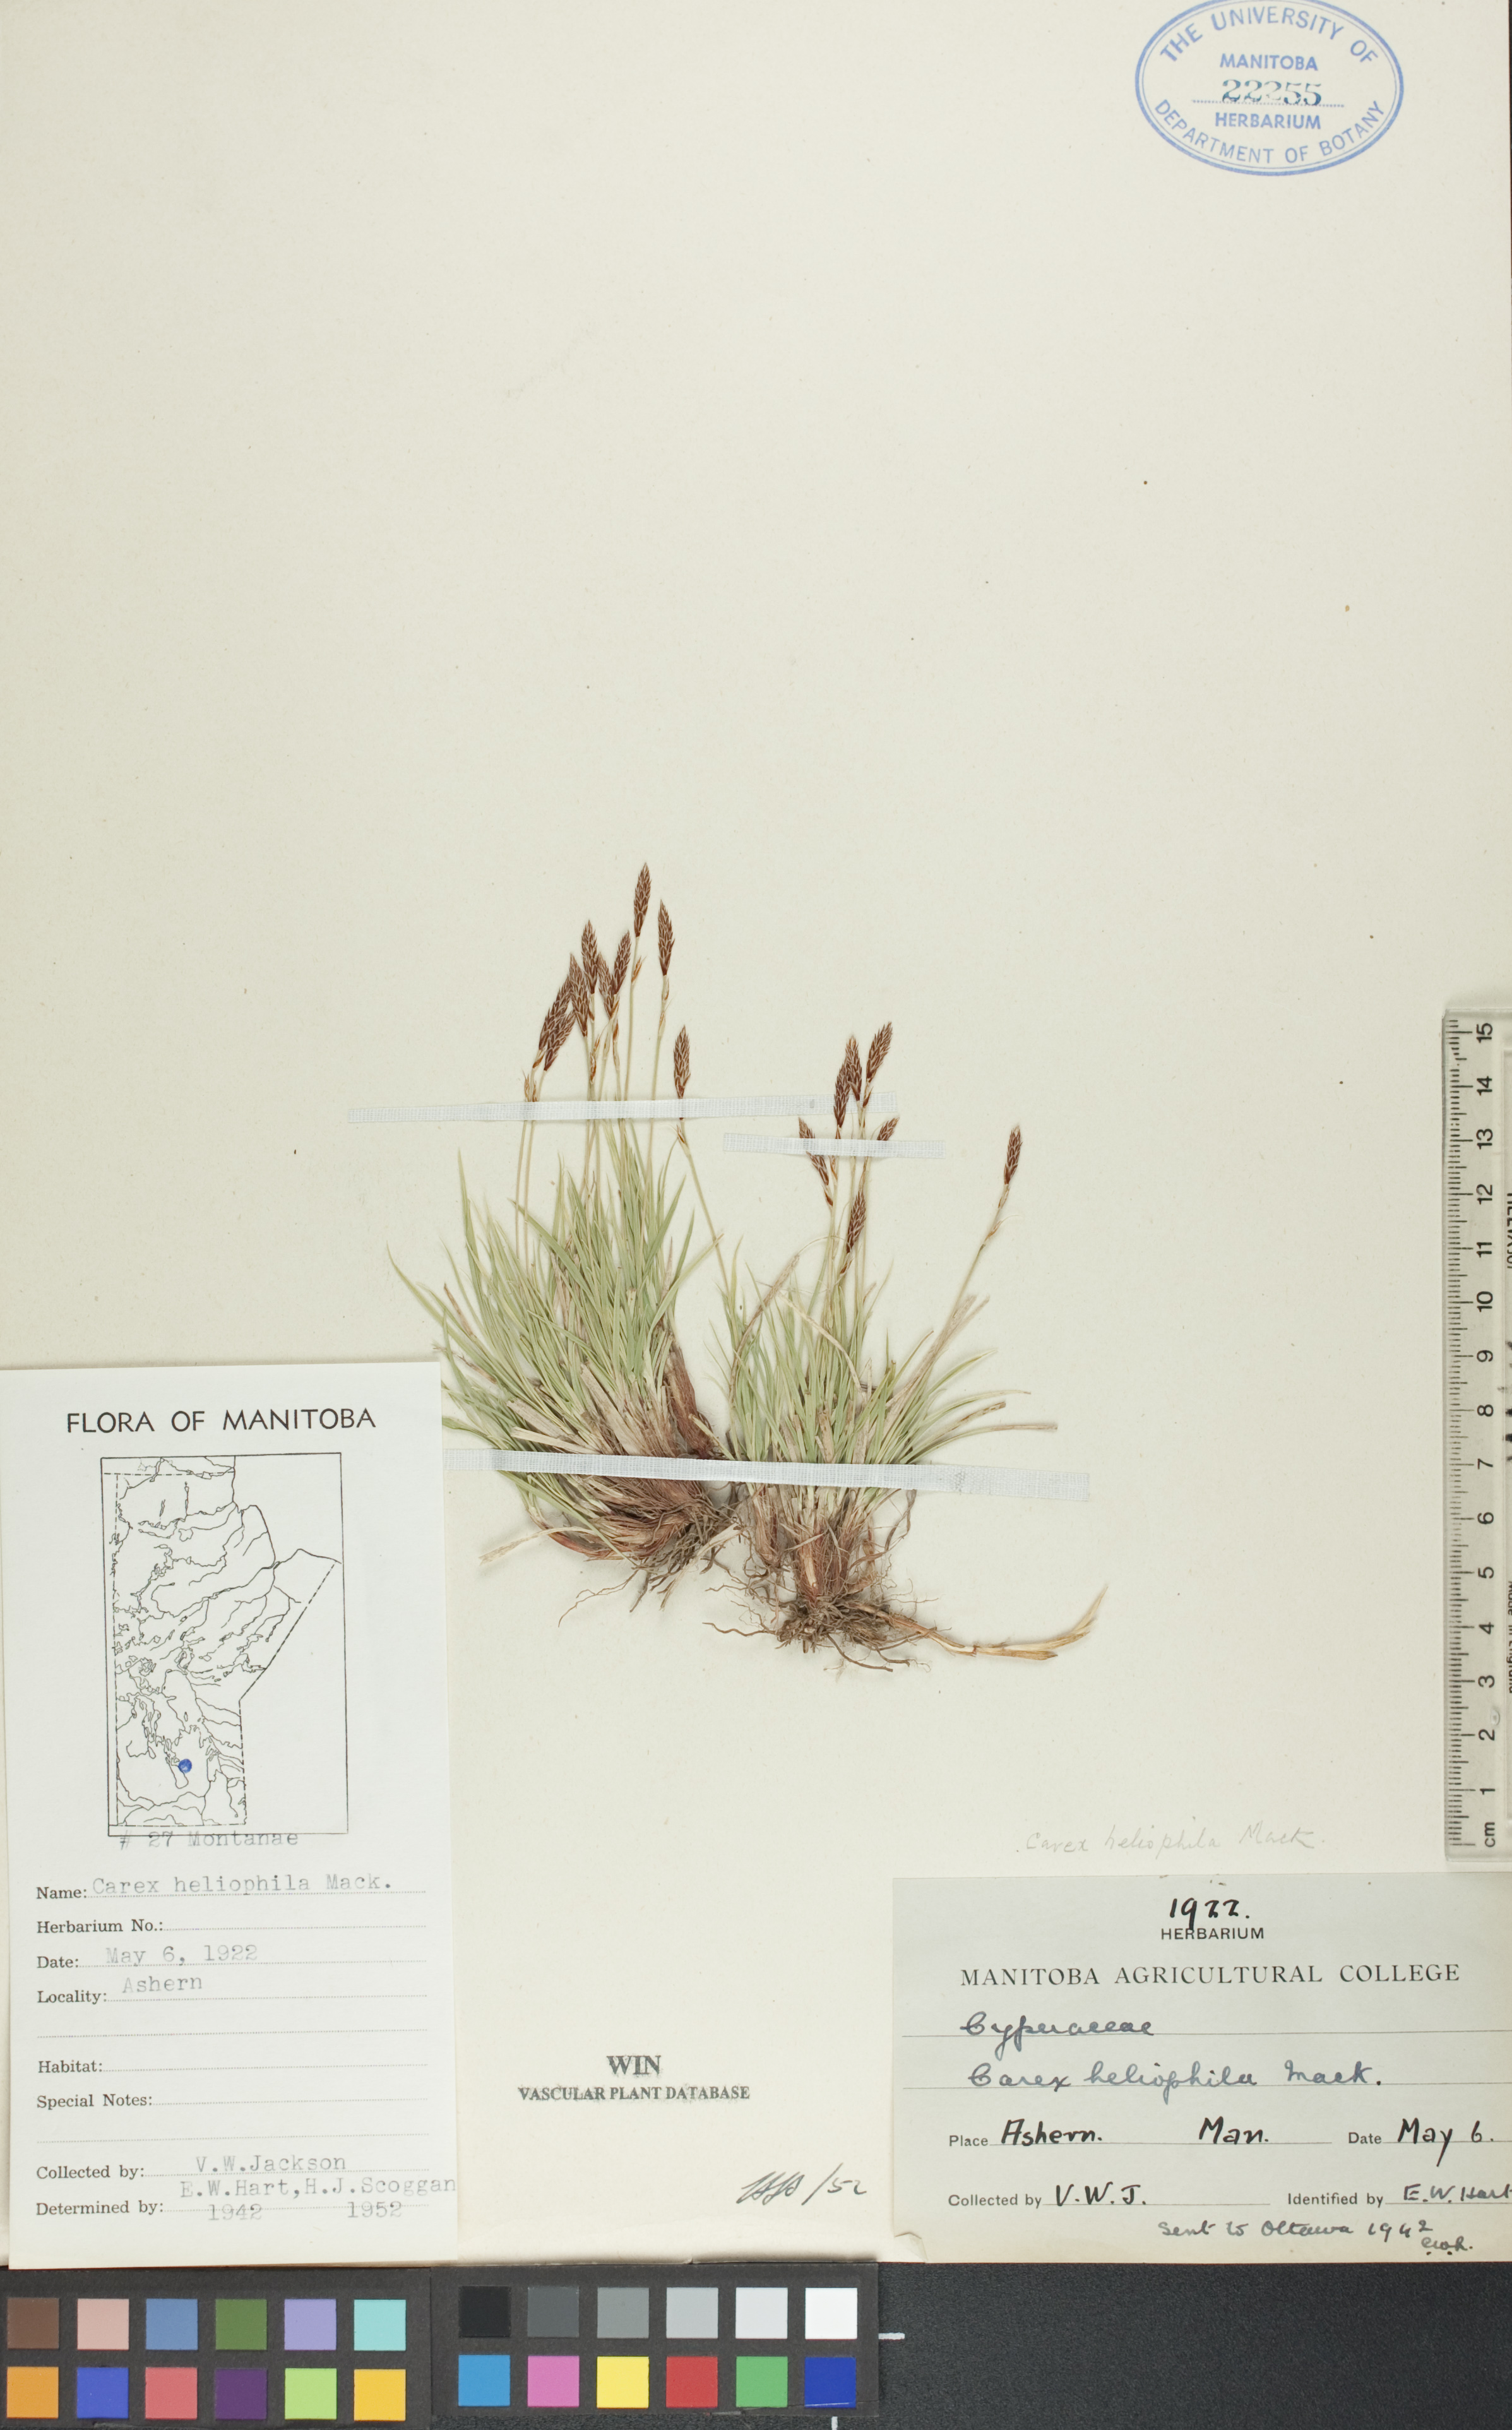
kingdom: Plantae
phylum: Tracheophyta
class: Liliopsida
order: Poales
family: Cyperaceae
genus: Carex
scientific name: Carex inops
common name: Long-stolon sedge
